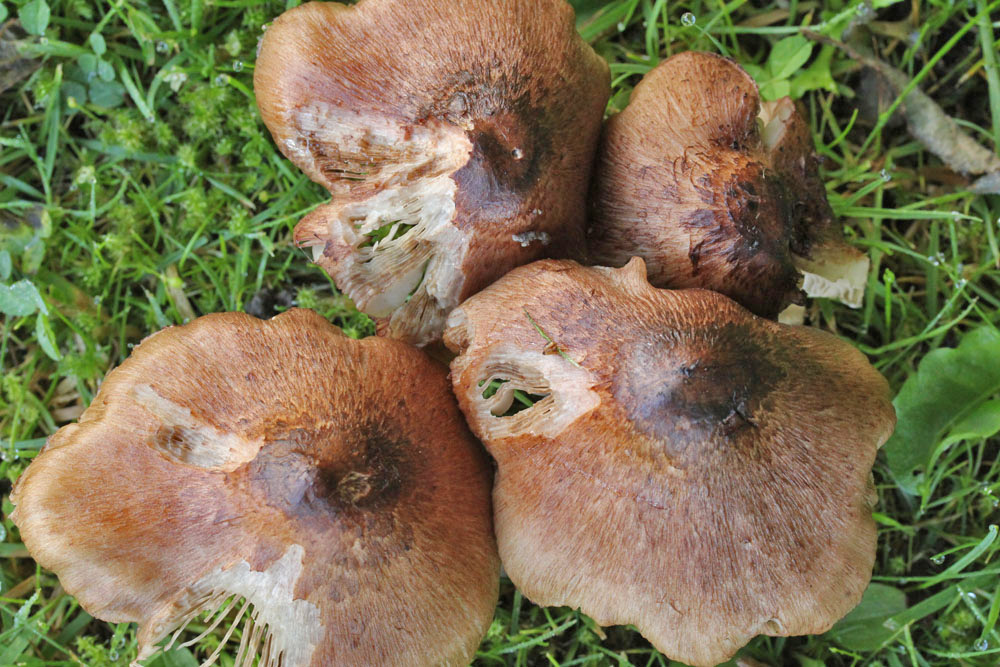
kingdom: Fungi
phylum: Basidiomycota
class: Agaricomycetes
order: Agaricales
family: Inocybaceae
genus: Inosperma
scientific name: Inosperma adaequatum
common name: vinrød trævlhat
